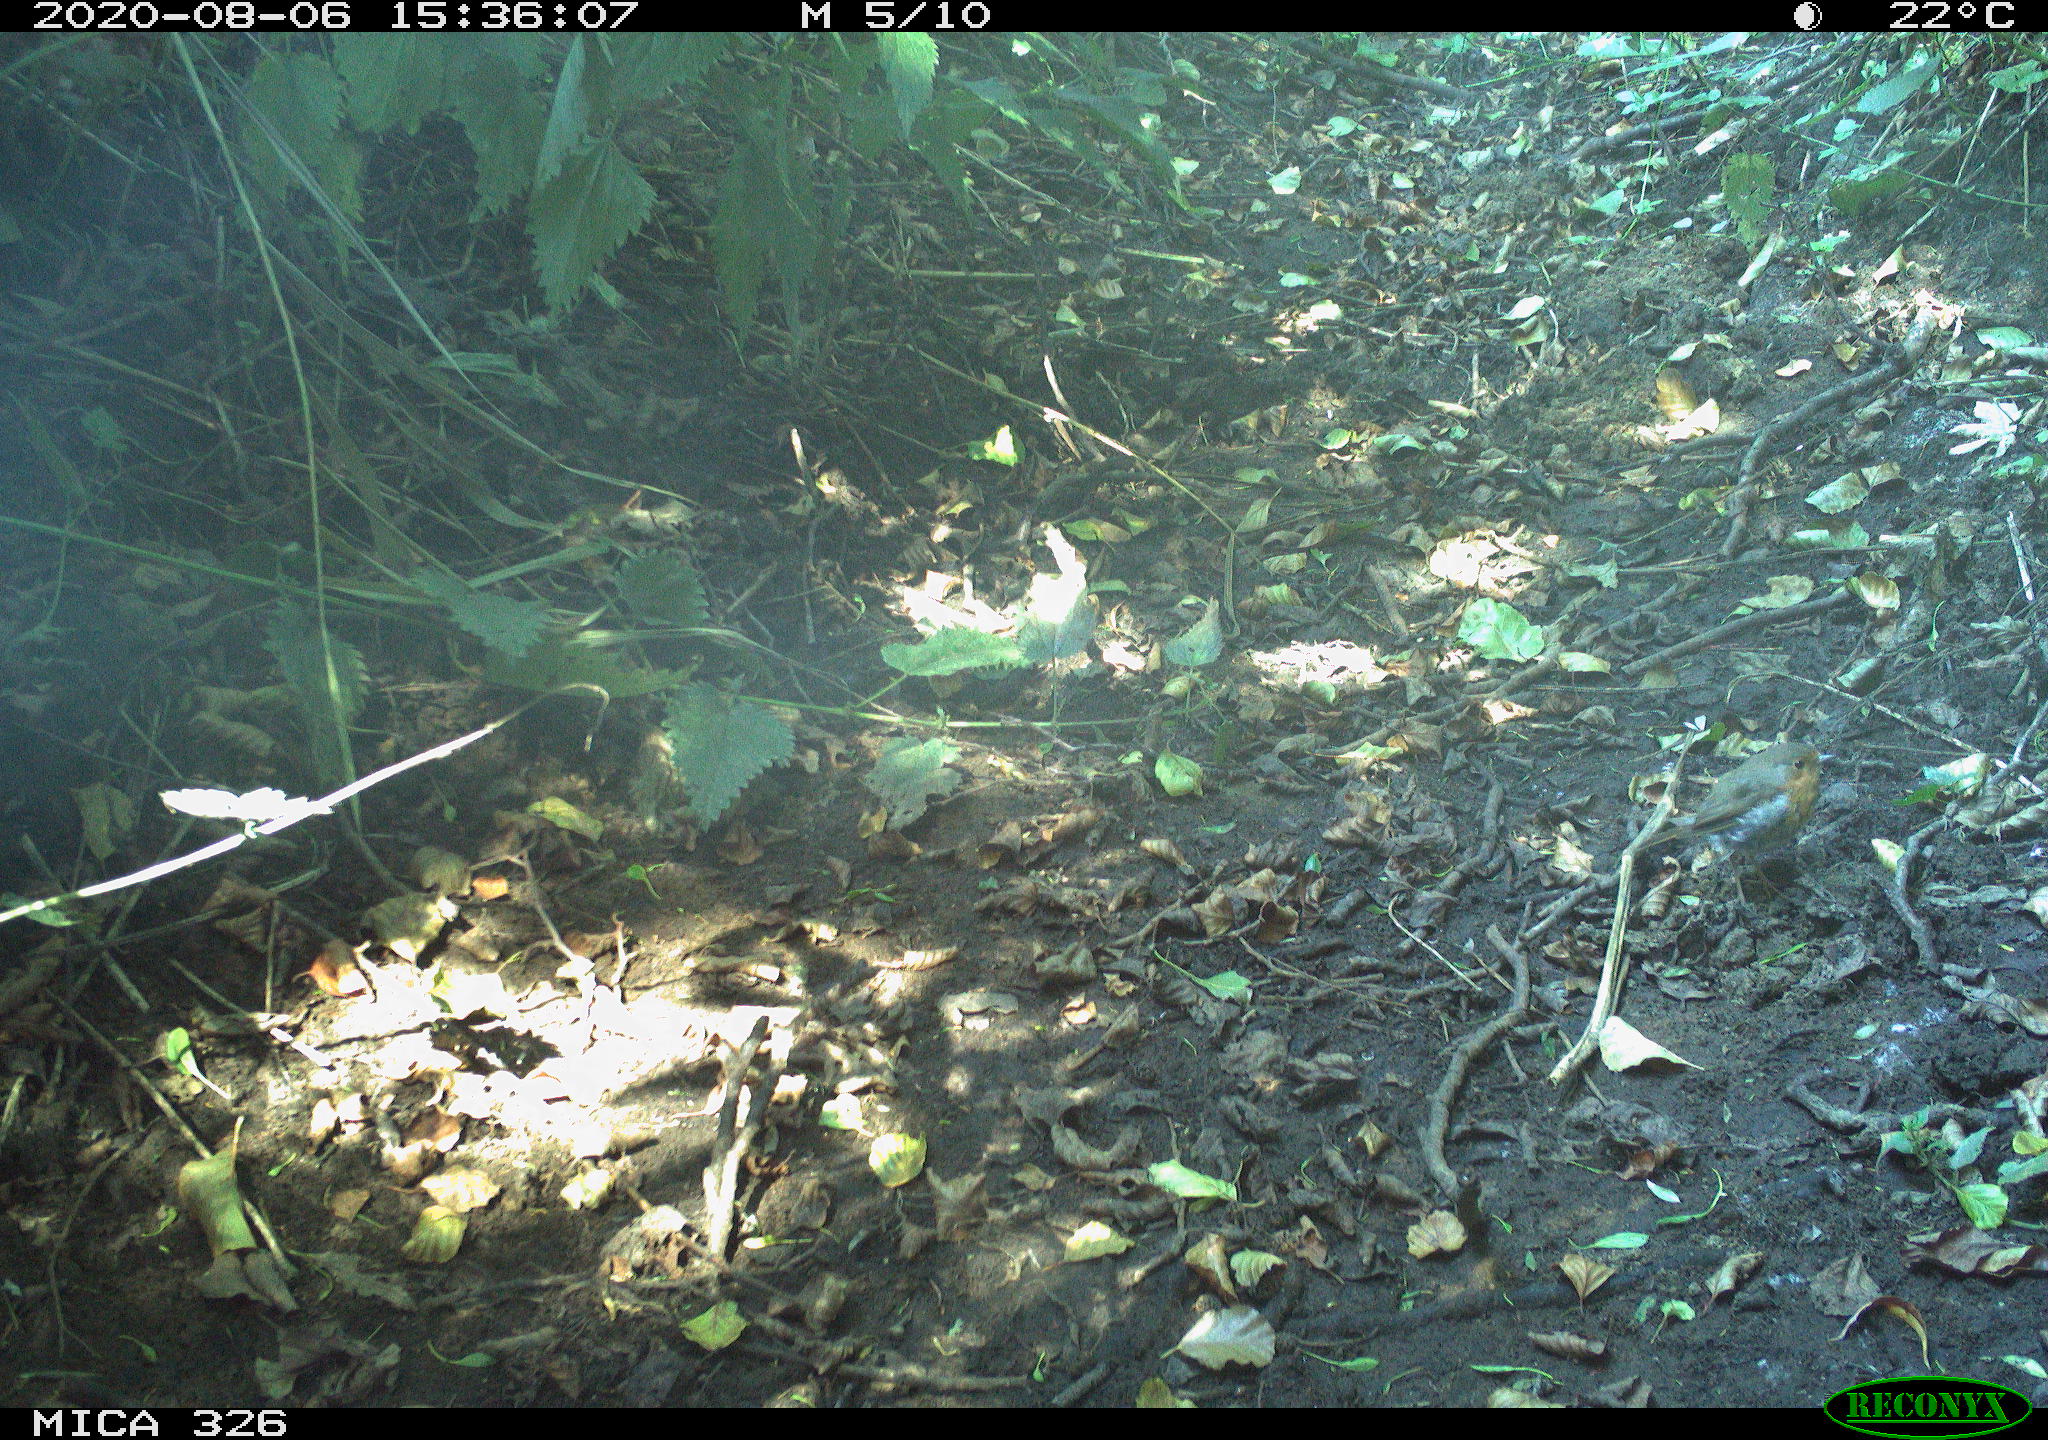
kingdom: Animalia
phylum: Chordata
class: Aves
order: Passeriformes
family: Muscicapidae
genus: Erithacus
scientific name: Erithacus rubecula
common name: European robin
